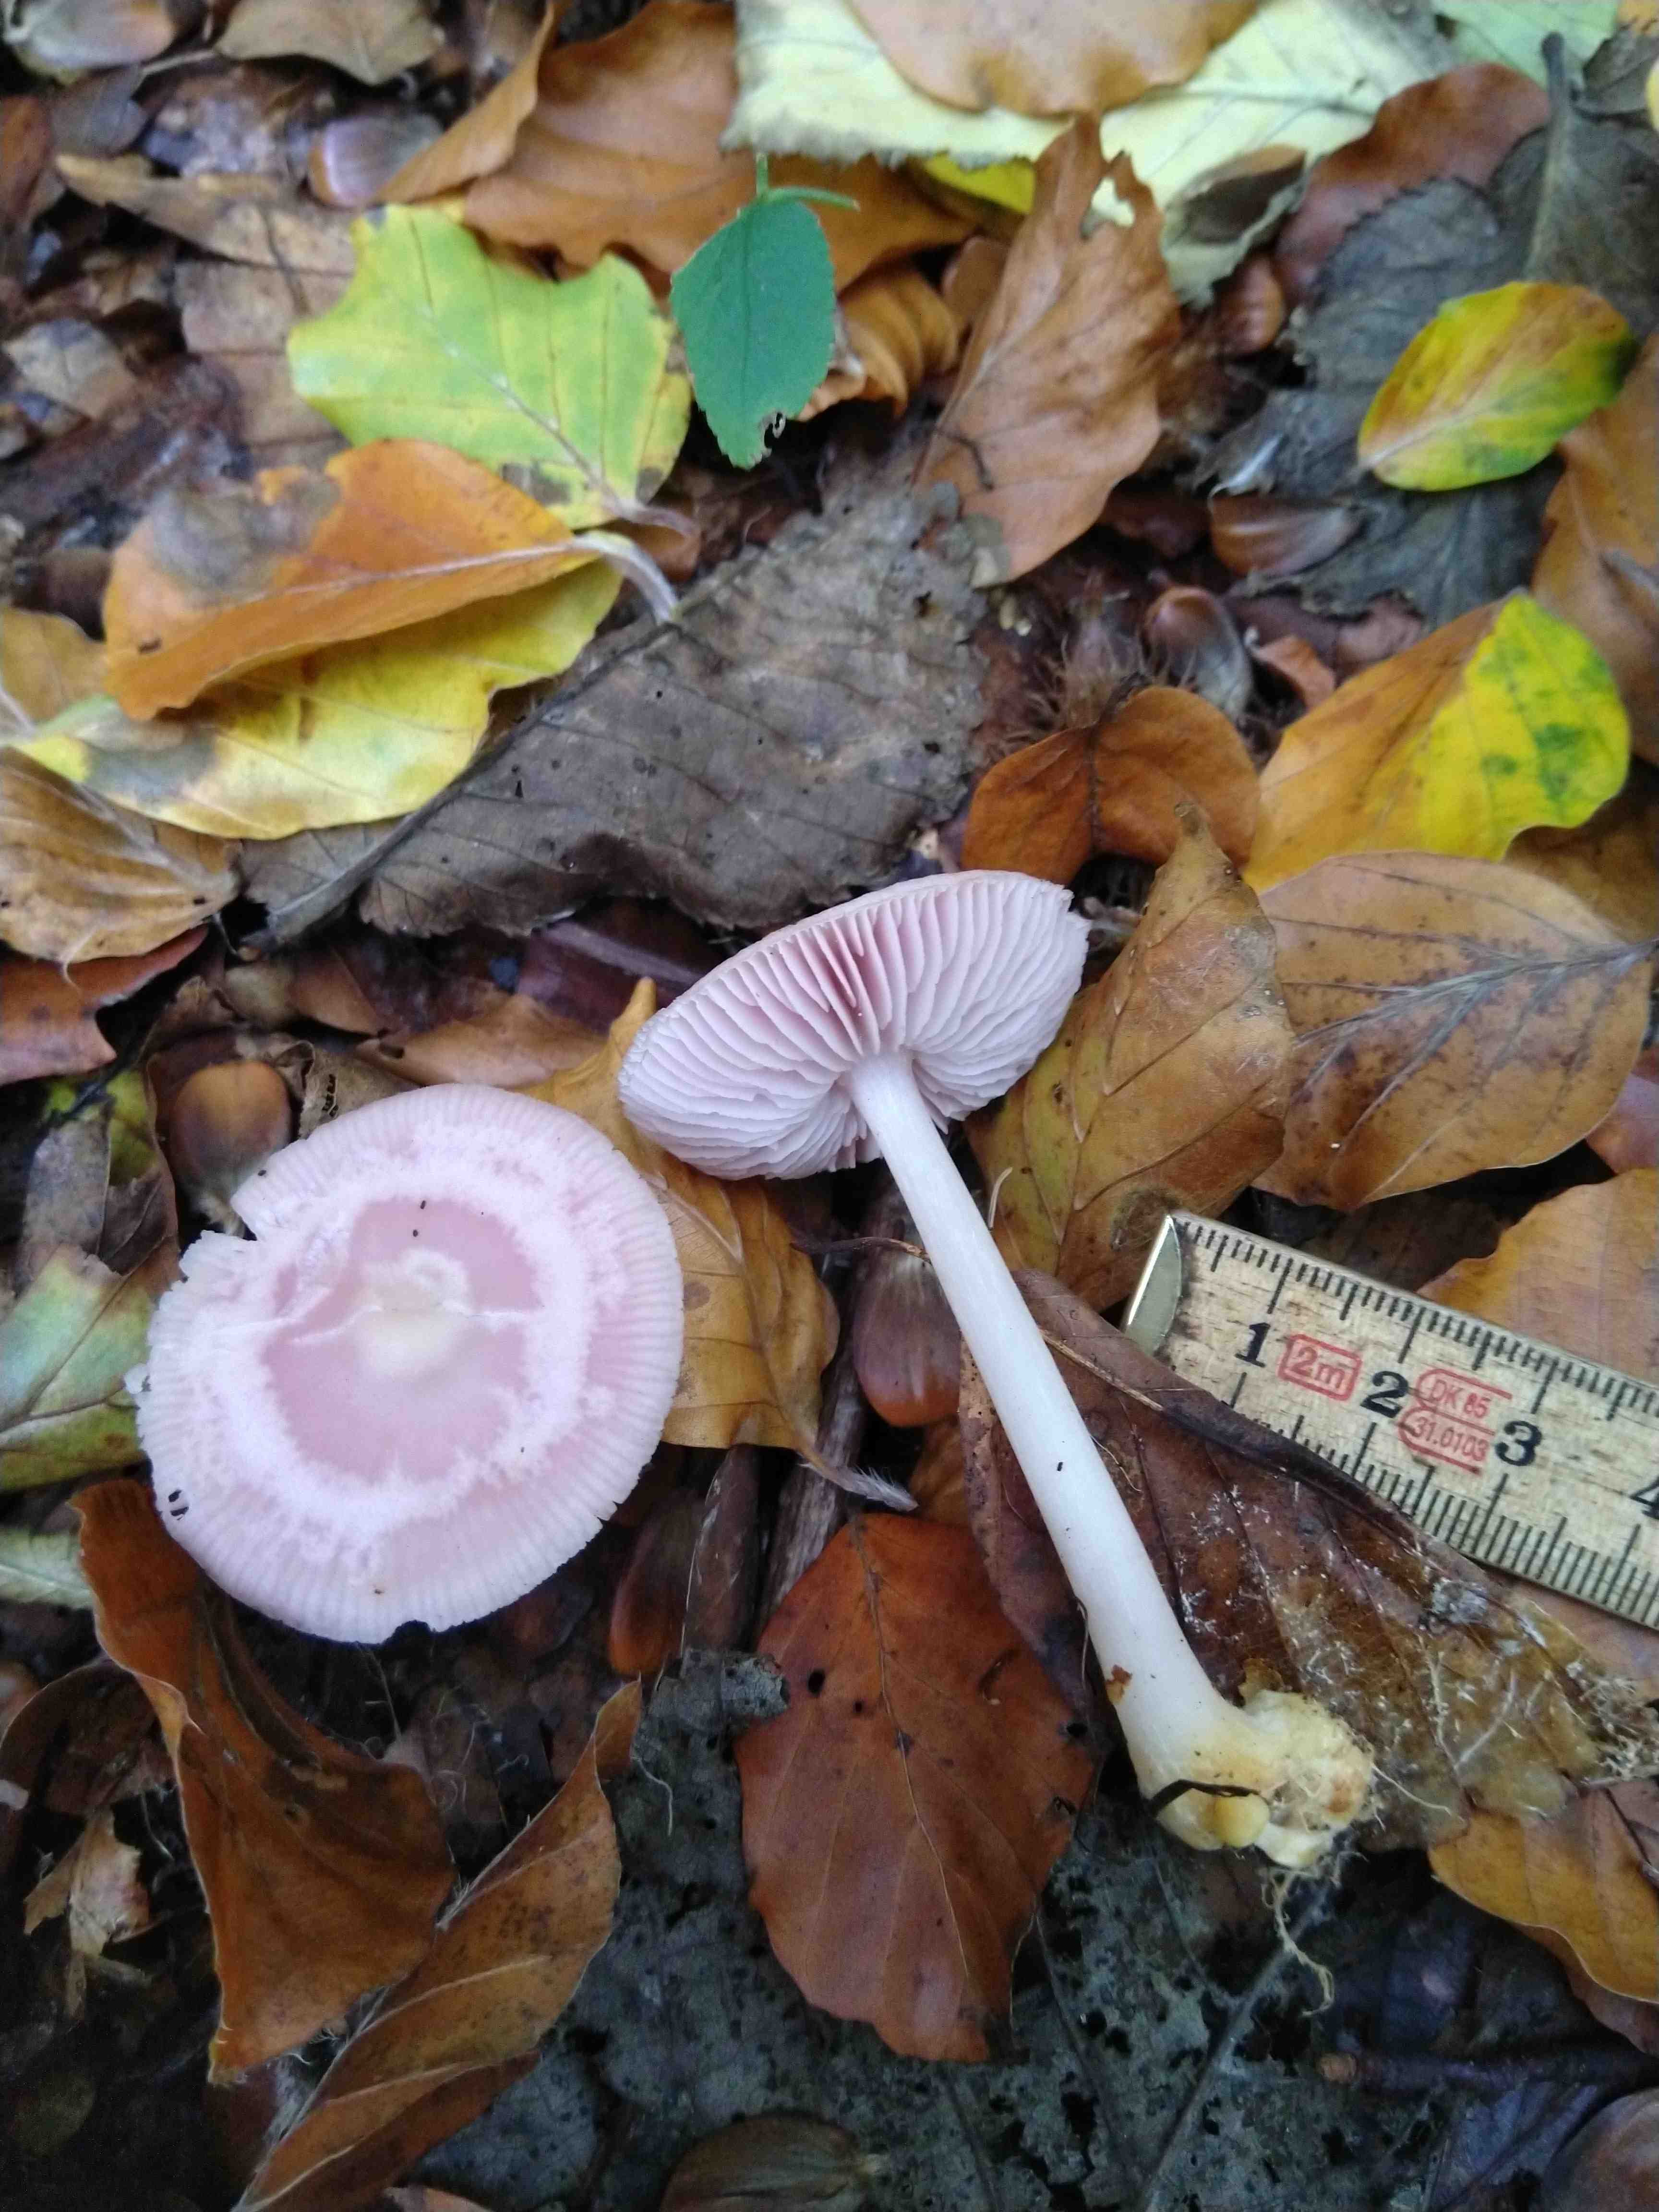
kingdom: Fungi
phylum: Basidiomycota
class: Agaricomycetes
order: Agaricales
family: Mycenaceae
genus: Mycena
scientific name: Mycena rosea
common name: rosa huesvamp
